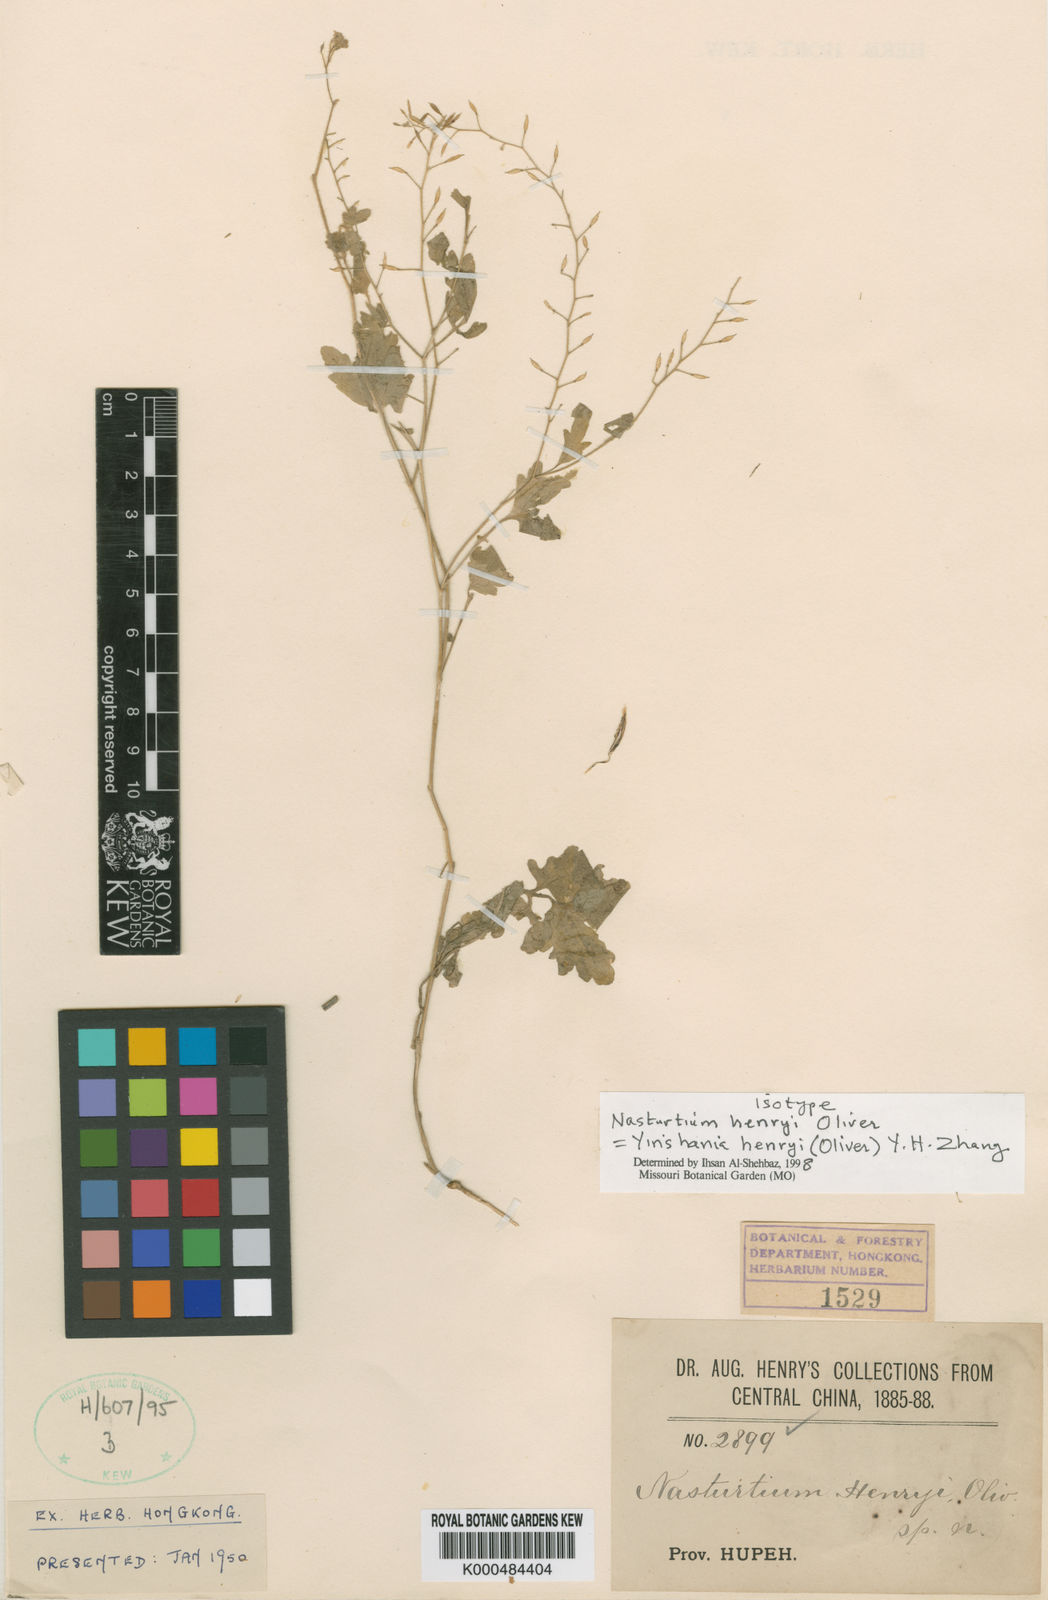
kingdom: Plantae
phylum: Tracheophyta
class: Magnoliopsida
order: Brassicales
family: Brassicaceae
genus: Yinshania
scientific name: Yinshania henryi
